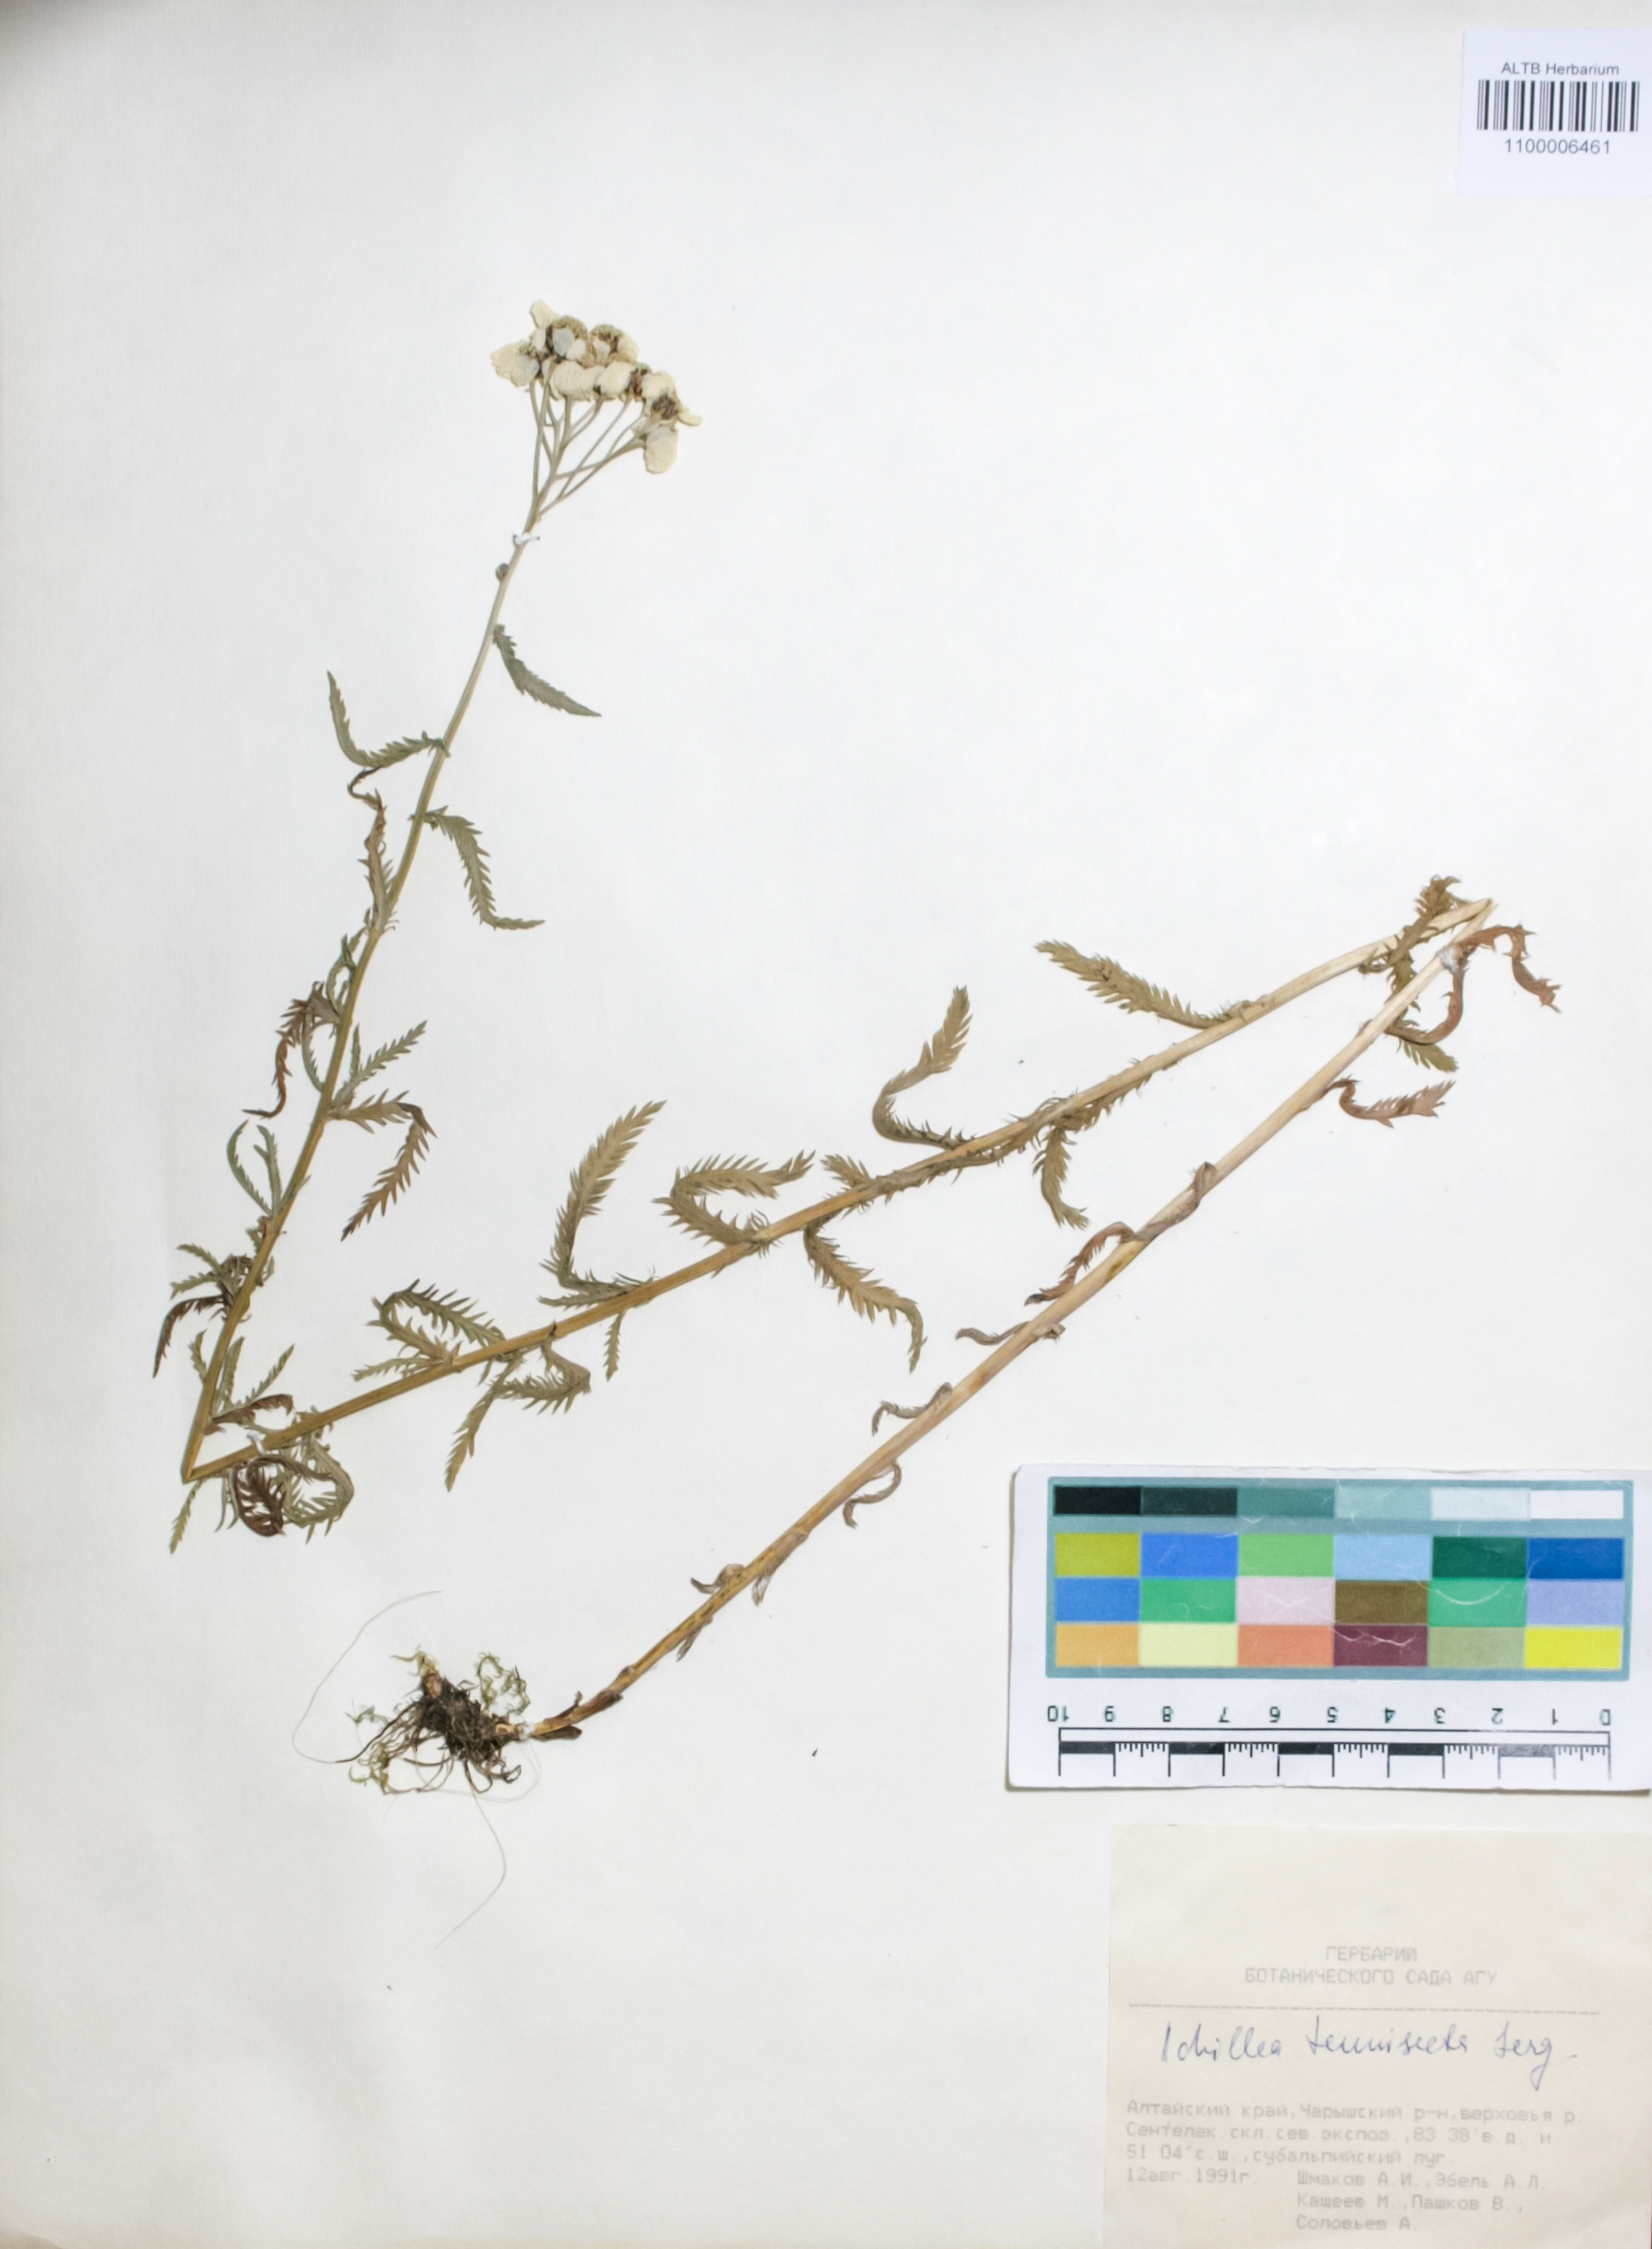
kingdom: Plantae
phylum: Tracheophyta
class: Magnoliopsida
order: Asterales
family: Asteraceae
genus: Achillea
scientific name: Achillea tenuifolia
